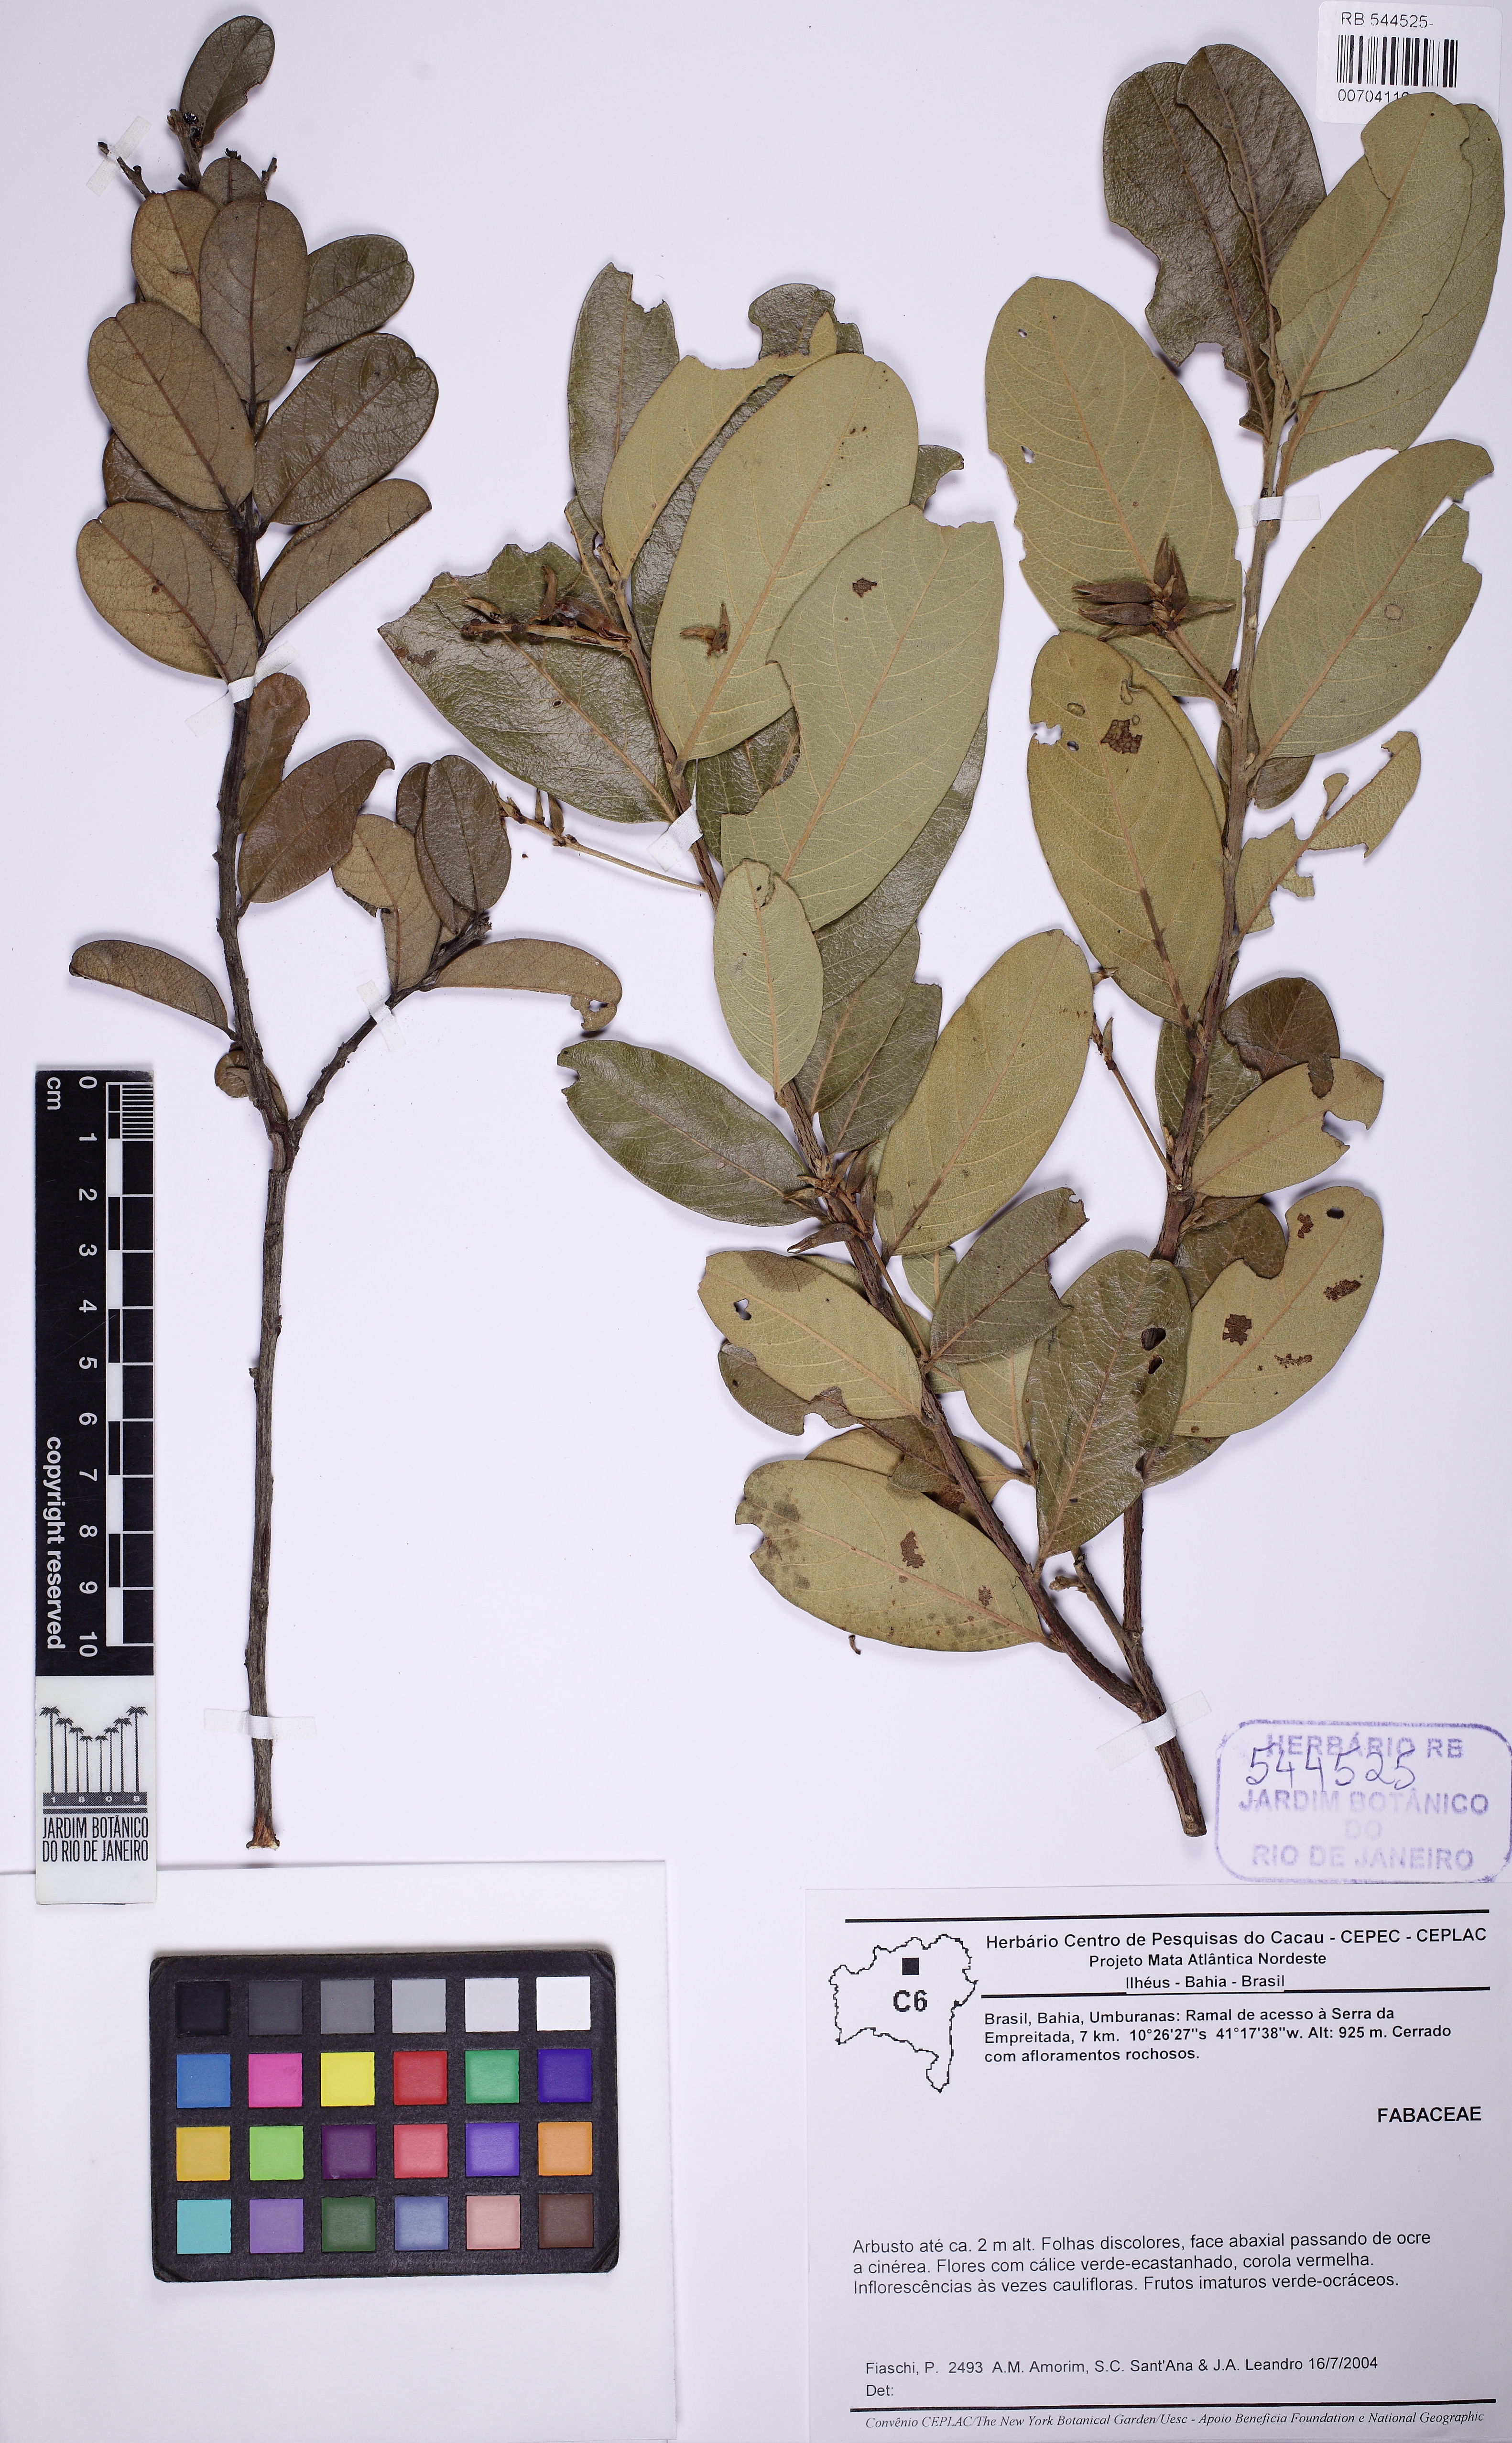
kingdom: Plantae
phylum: Tracheophyta
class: Magnoliopsida
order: Fabales
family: Fabaceae
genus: Camptosema
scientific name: Camptosema
